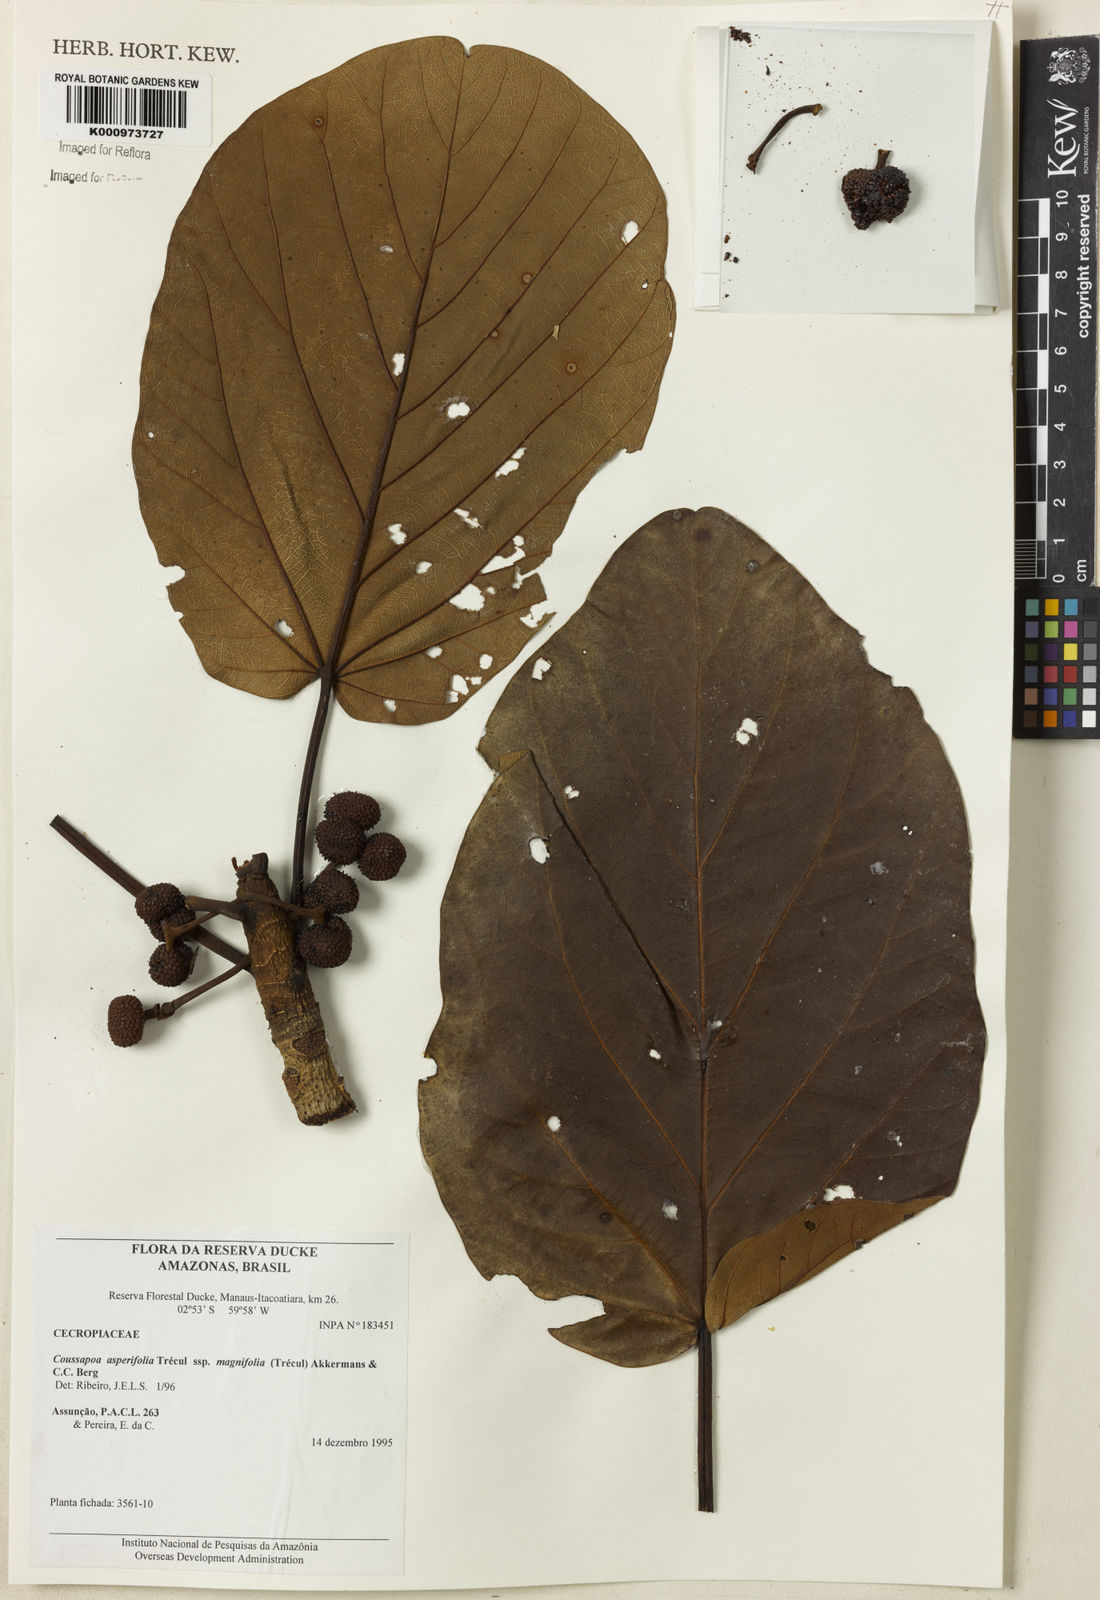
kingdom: Plantae
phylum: Tracheophyta
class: Magnoliopsida
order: Rosales
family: Urticaceae
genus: Coussapoa
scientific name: Coussapoa
